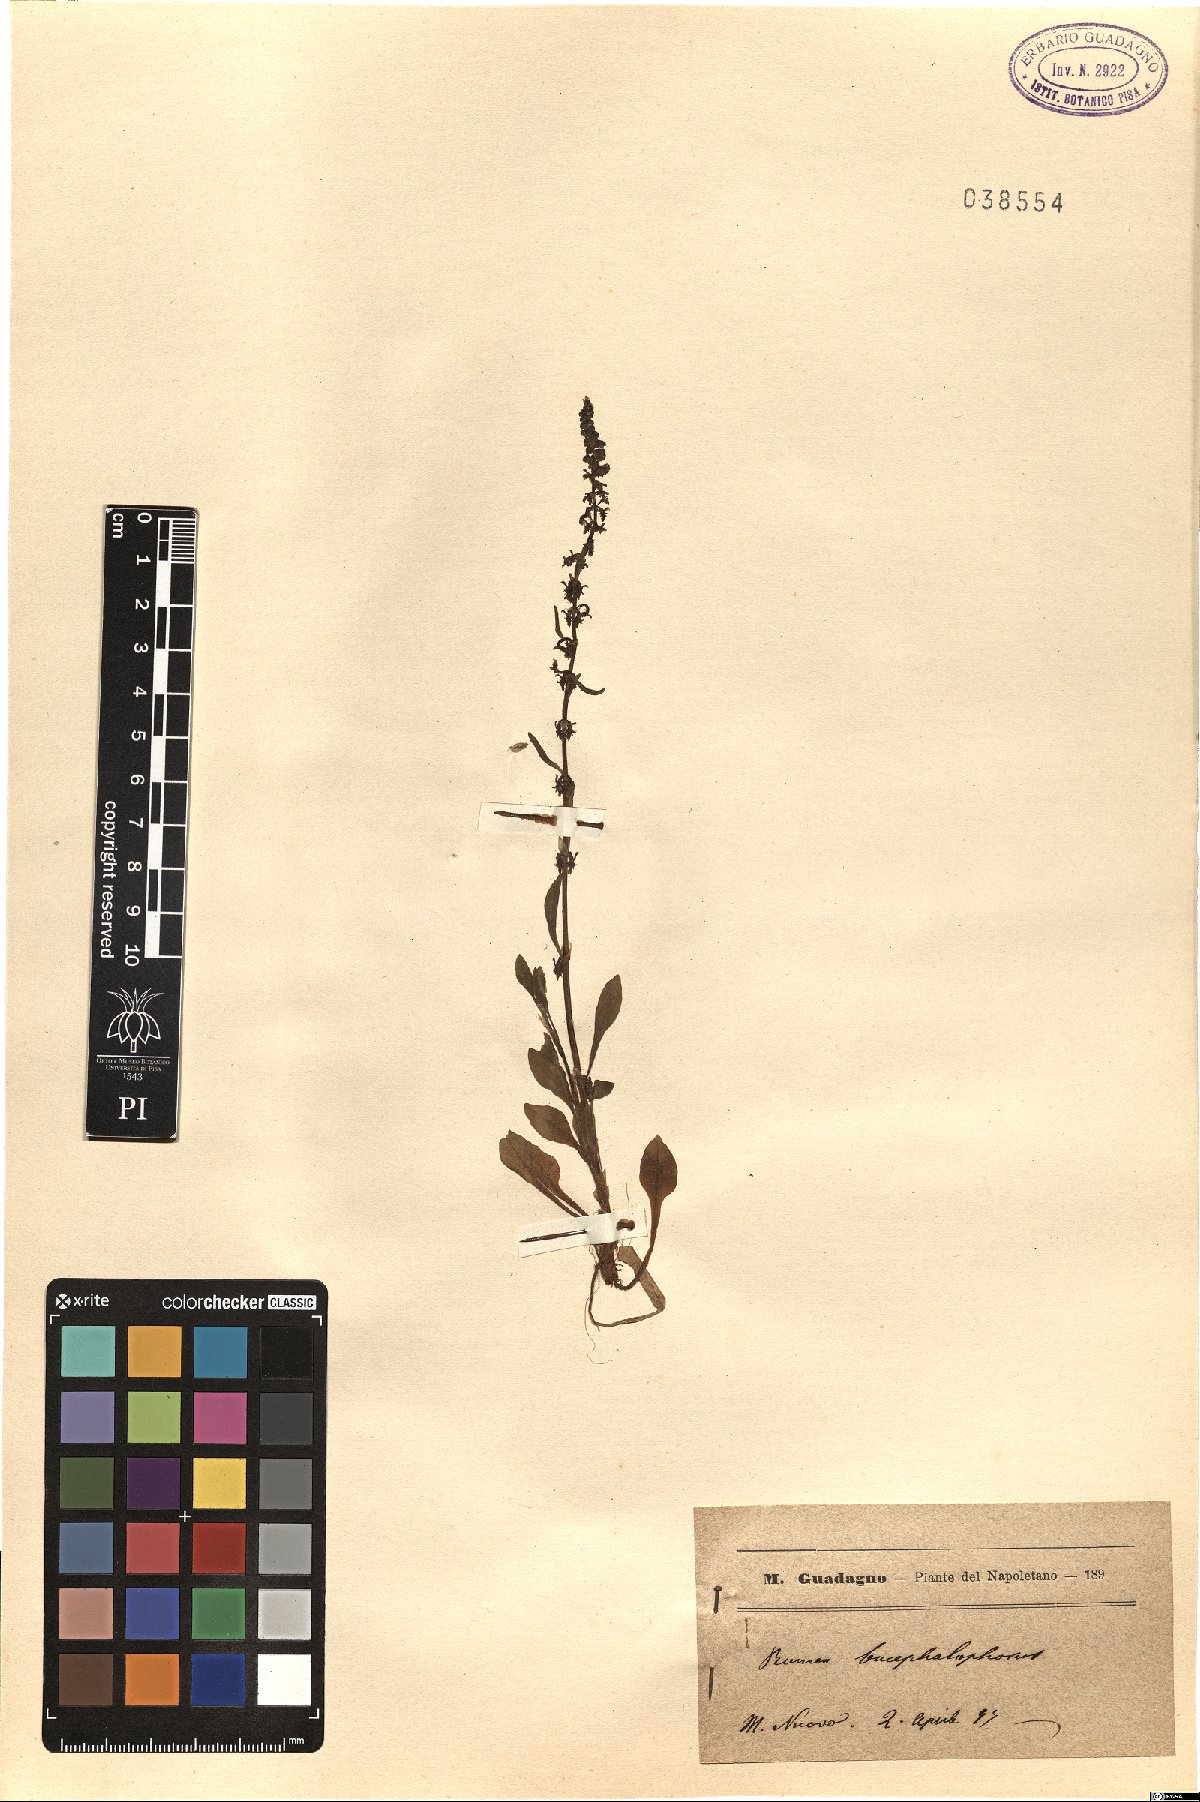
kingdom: Plantae
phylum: Tracheophyta
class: Magnoliopsida
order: Caryophyllales
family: Polygonaceae
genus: Rumex
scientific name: Rumex bucephalophorus
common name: Red dock
